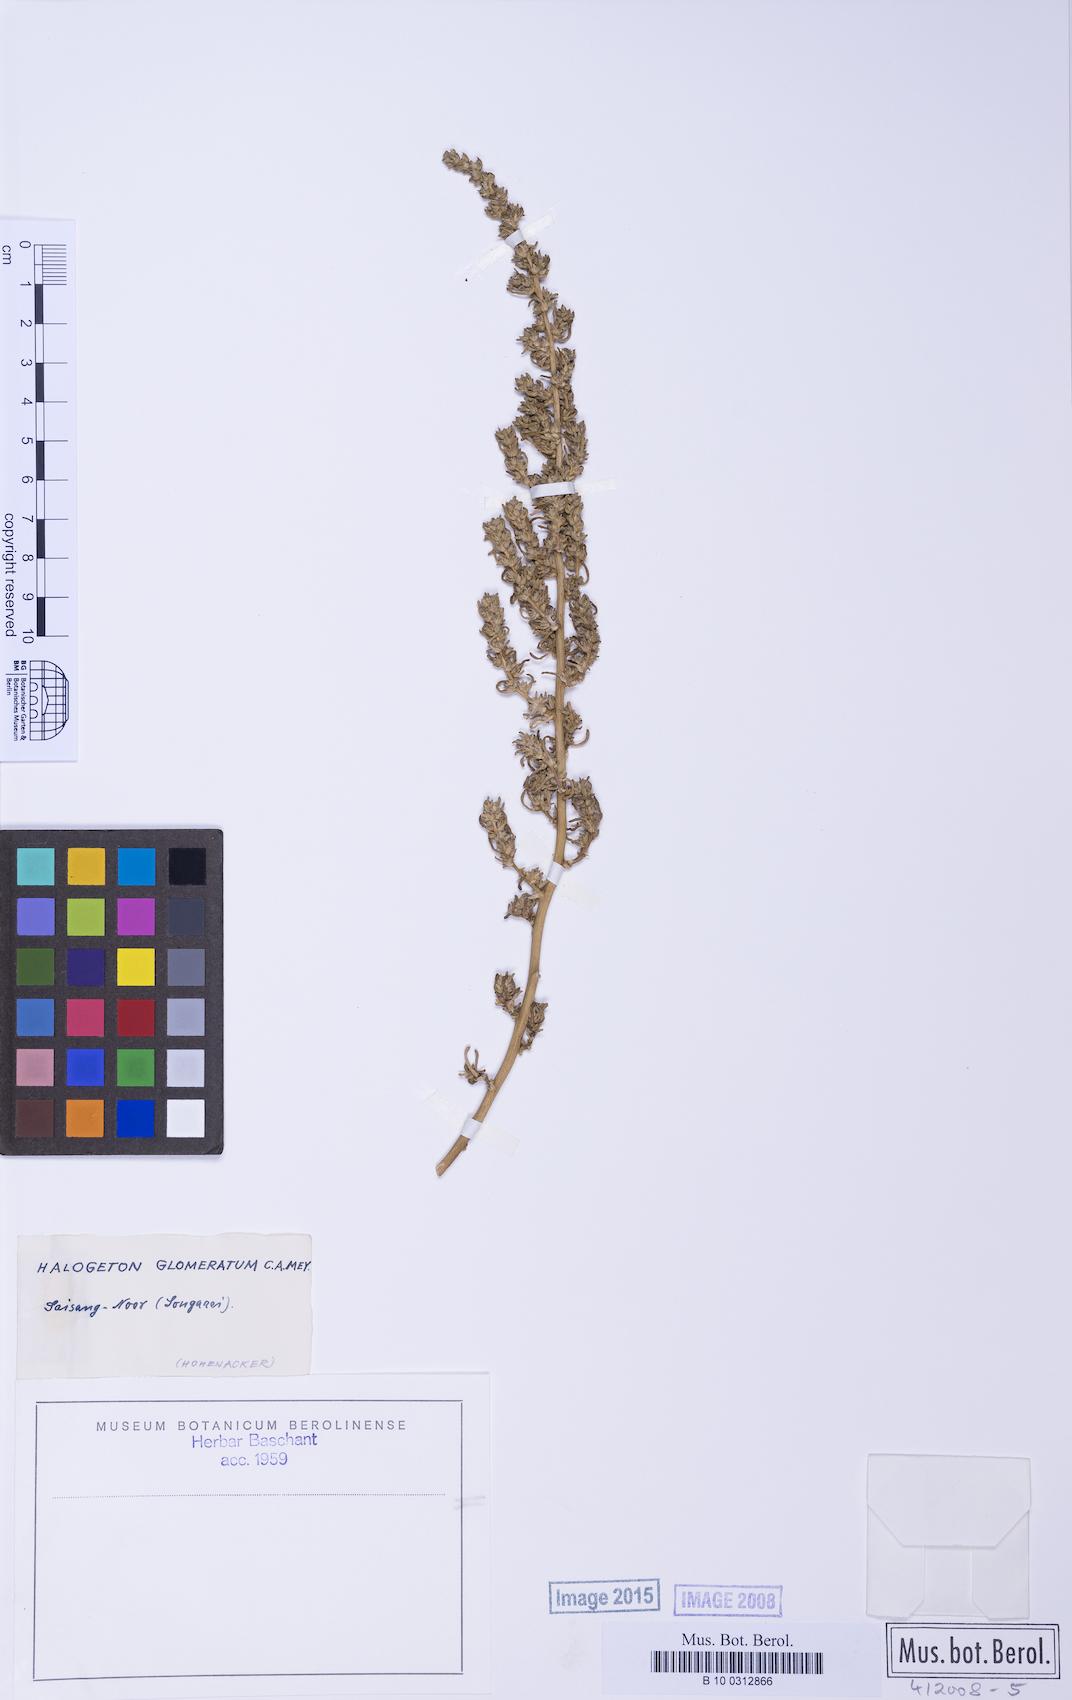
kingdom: Plantae
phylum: Tracheophyta
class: Magnoliopsida
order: Caryophyllales
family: Amaranthaceae
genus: Halogeton
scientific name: Halogeton glomeratus
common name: Saltlover
